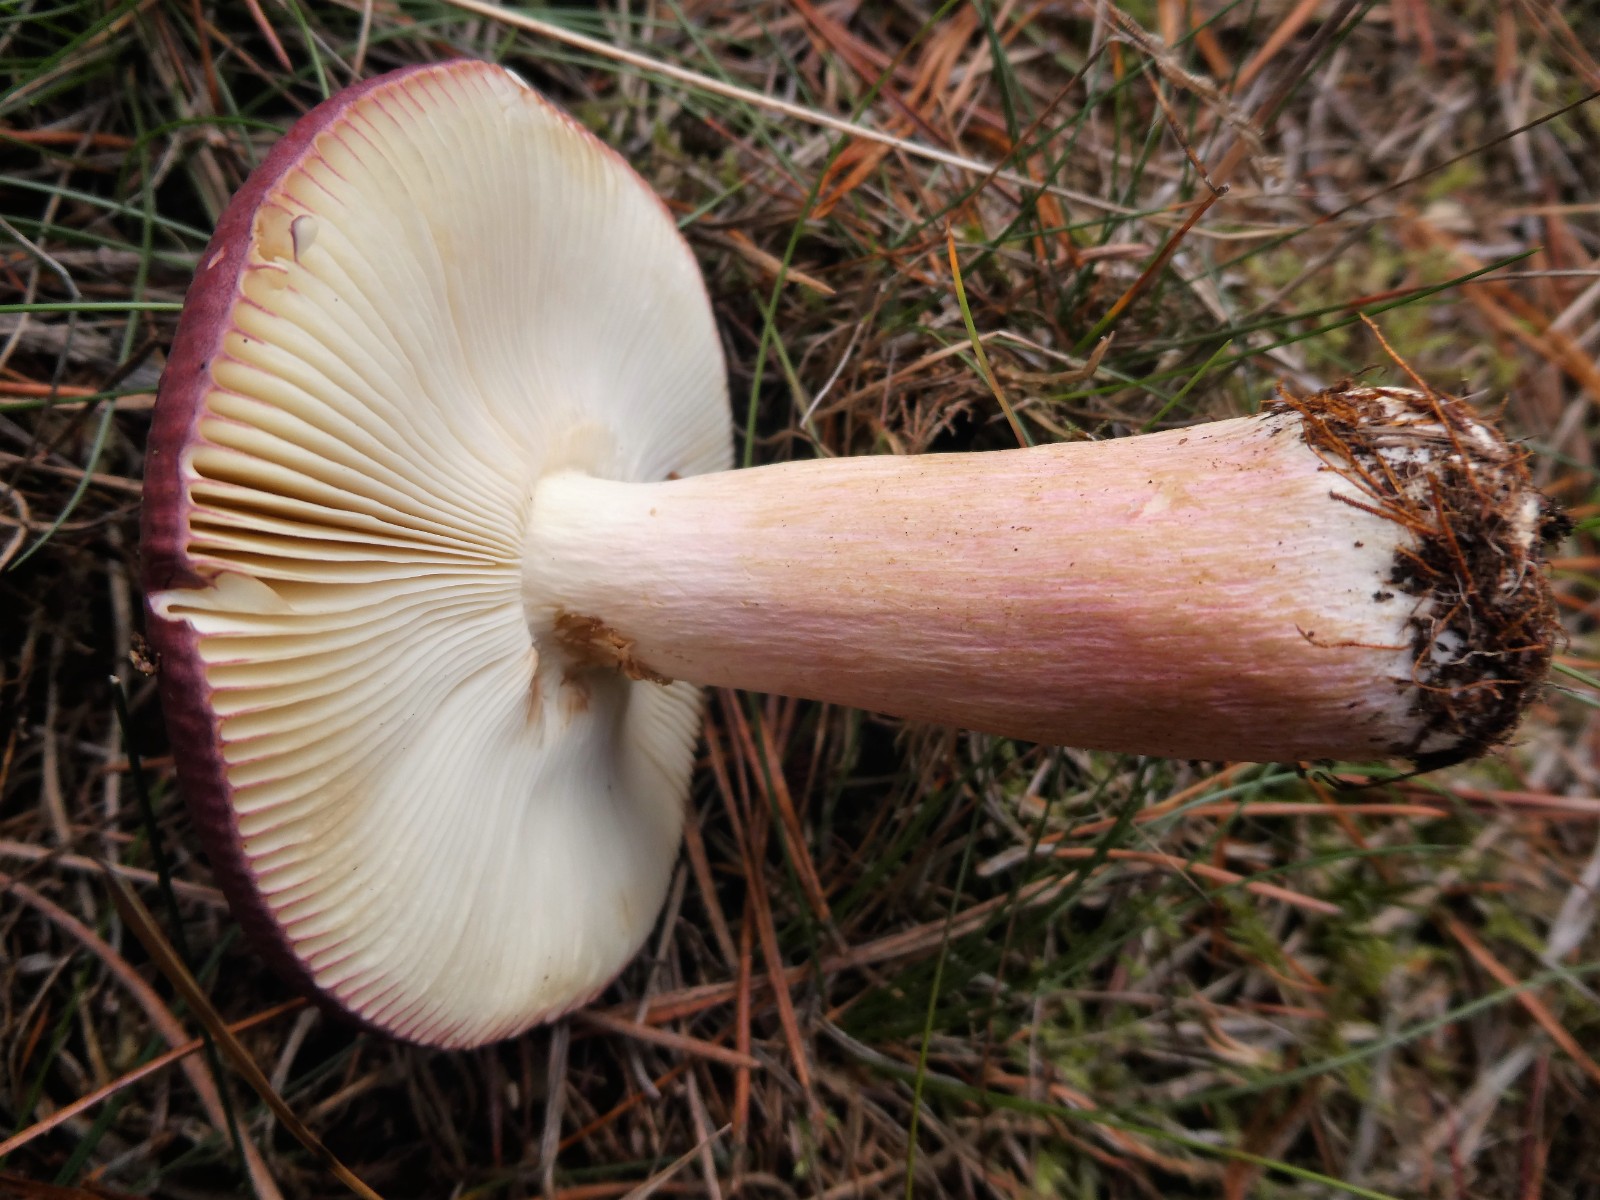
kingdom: Fungi
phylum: Basidiomycota
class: Agaricomycetes
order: Russulales
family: Russulaceae
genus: Russula
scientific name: Russula xerampelina
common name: hummer-skørhat
